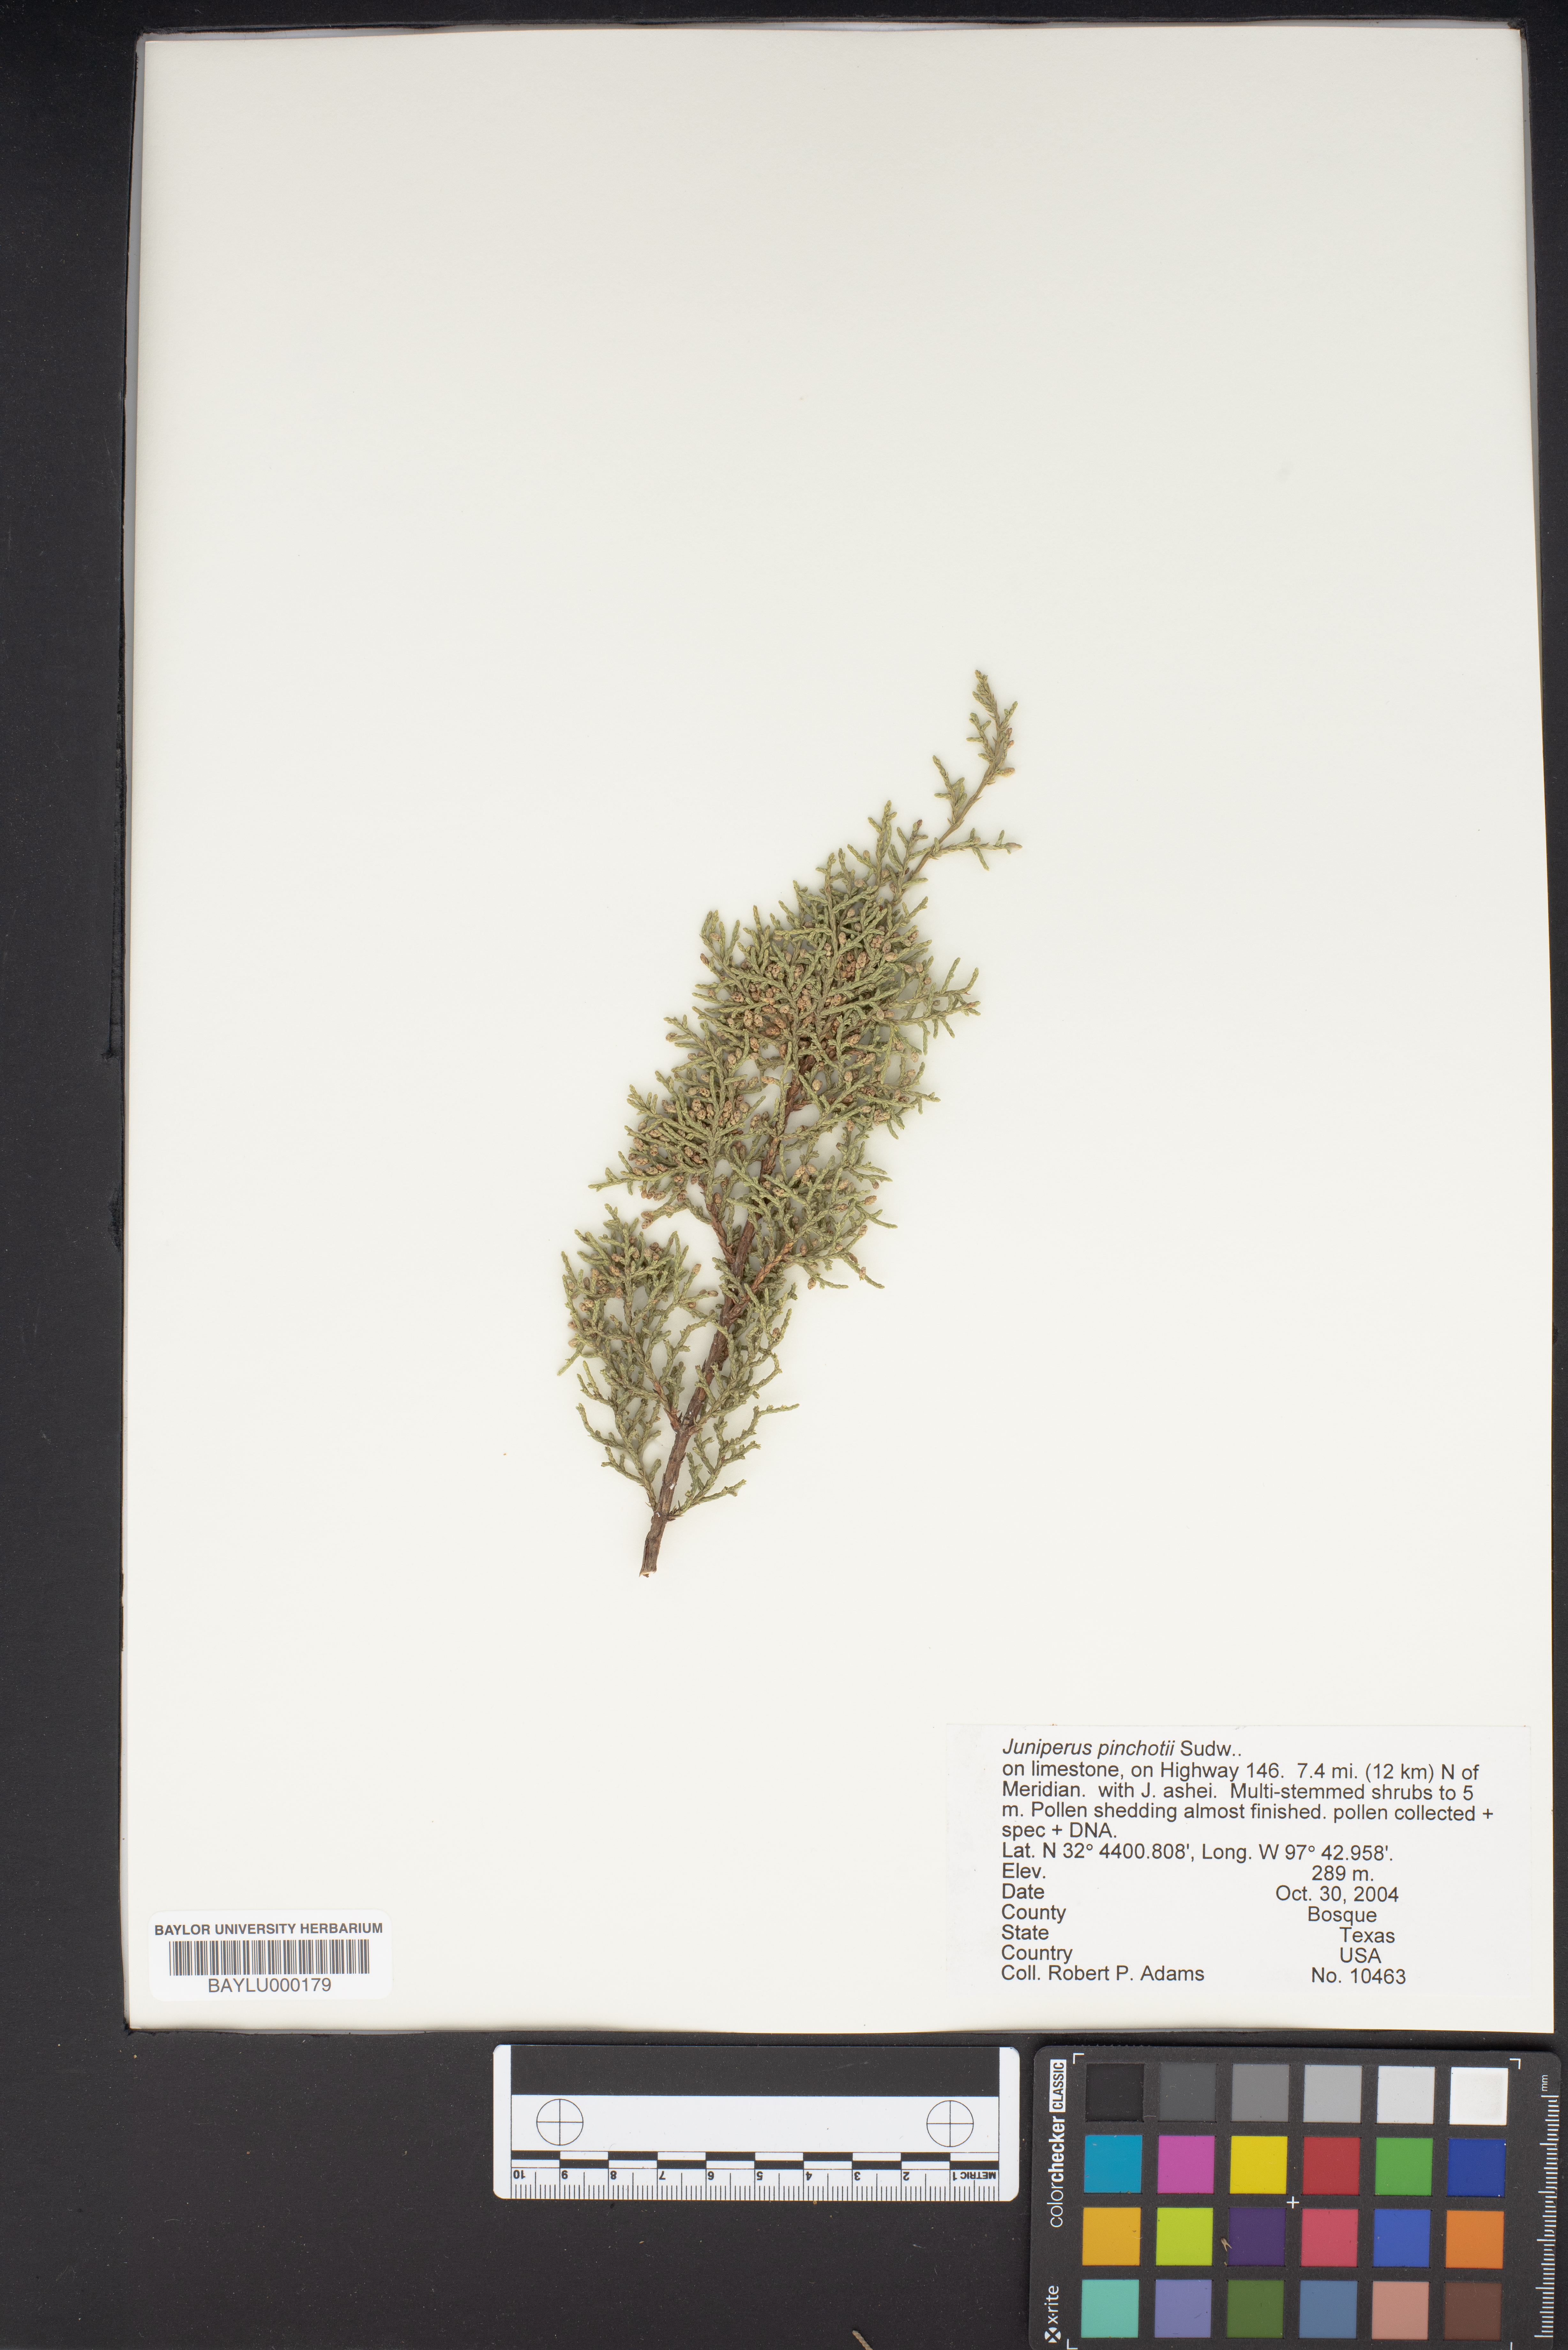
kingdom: Plantae
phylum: Tracheophyta
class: Pinopsida
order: Pinales
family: Cupressaceae
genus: Juniperus
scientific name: Juniperus pinchotii
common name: Pinchot juniper
